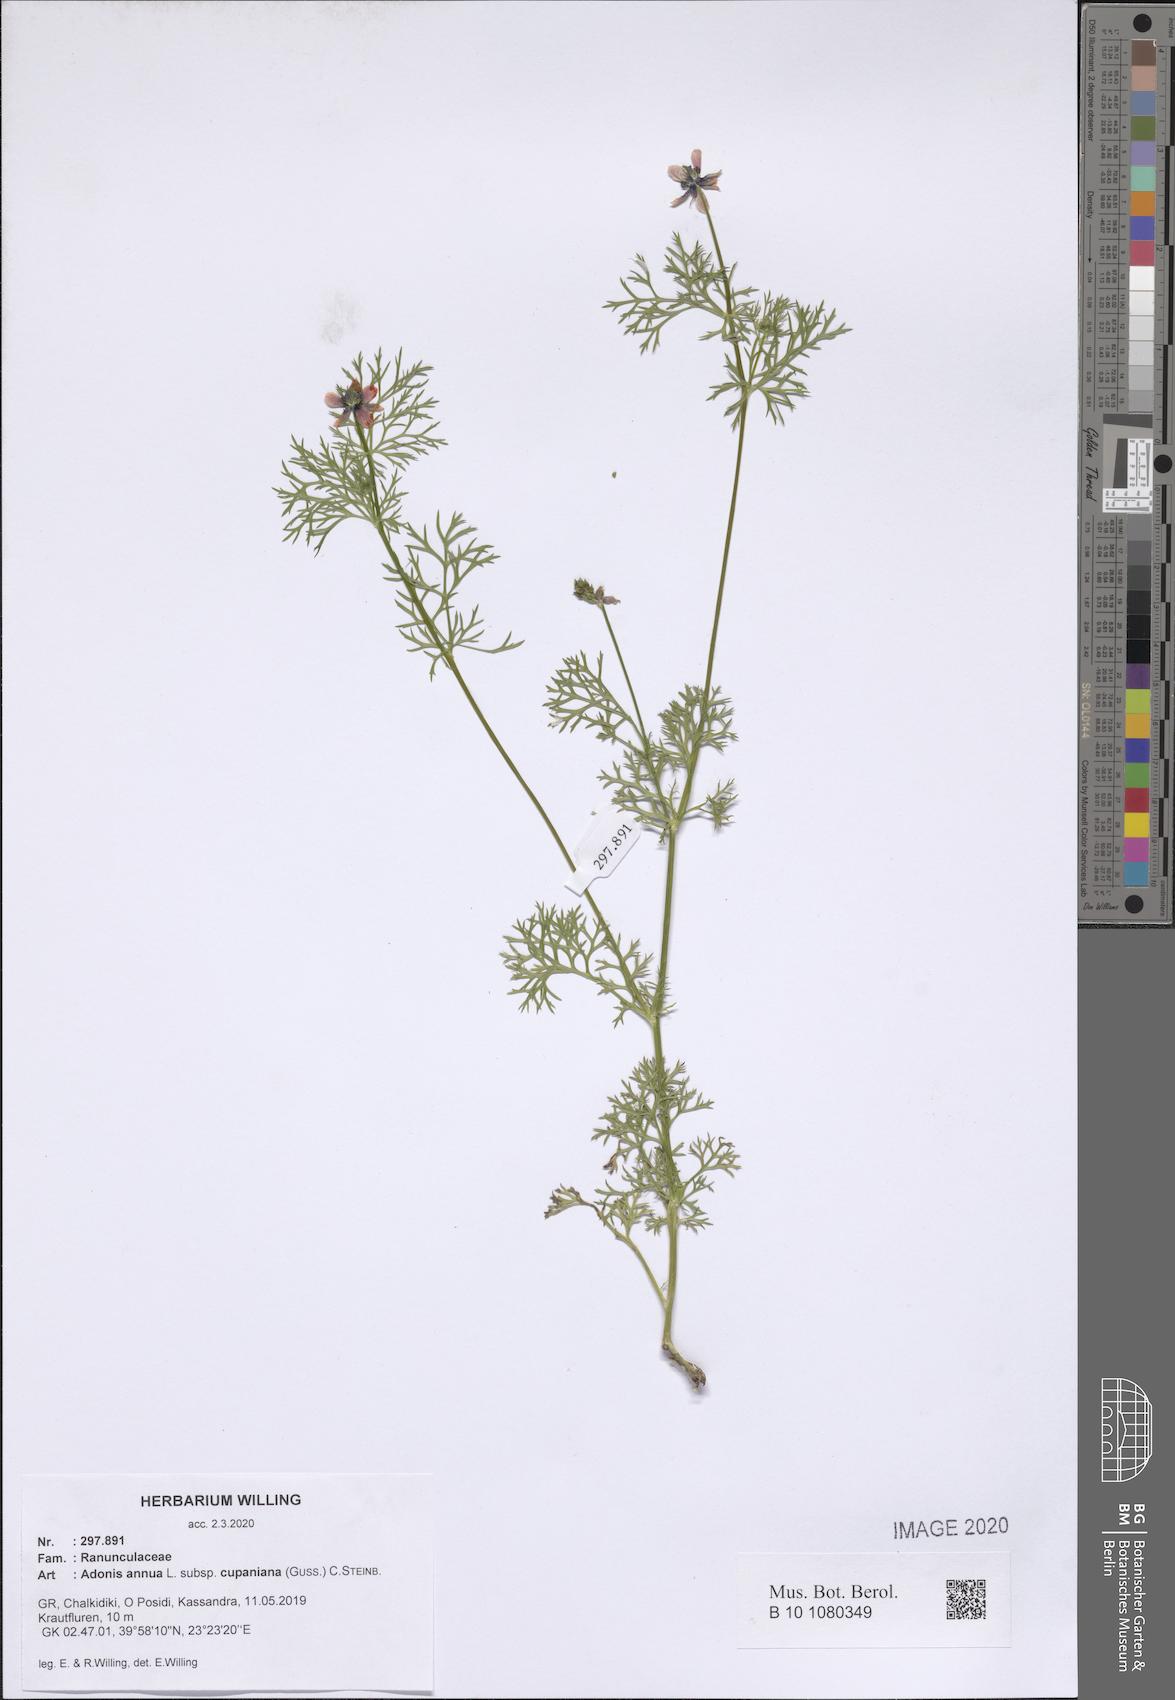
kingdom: Plantae
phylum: Tracheophyta
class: Magnoliopsida
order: Ranunculales
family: Ranunculaceae
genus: Adonis
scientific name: Adonis annua
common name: Pheasant's-eye
